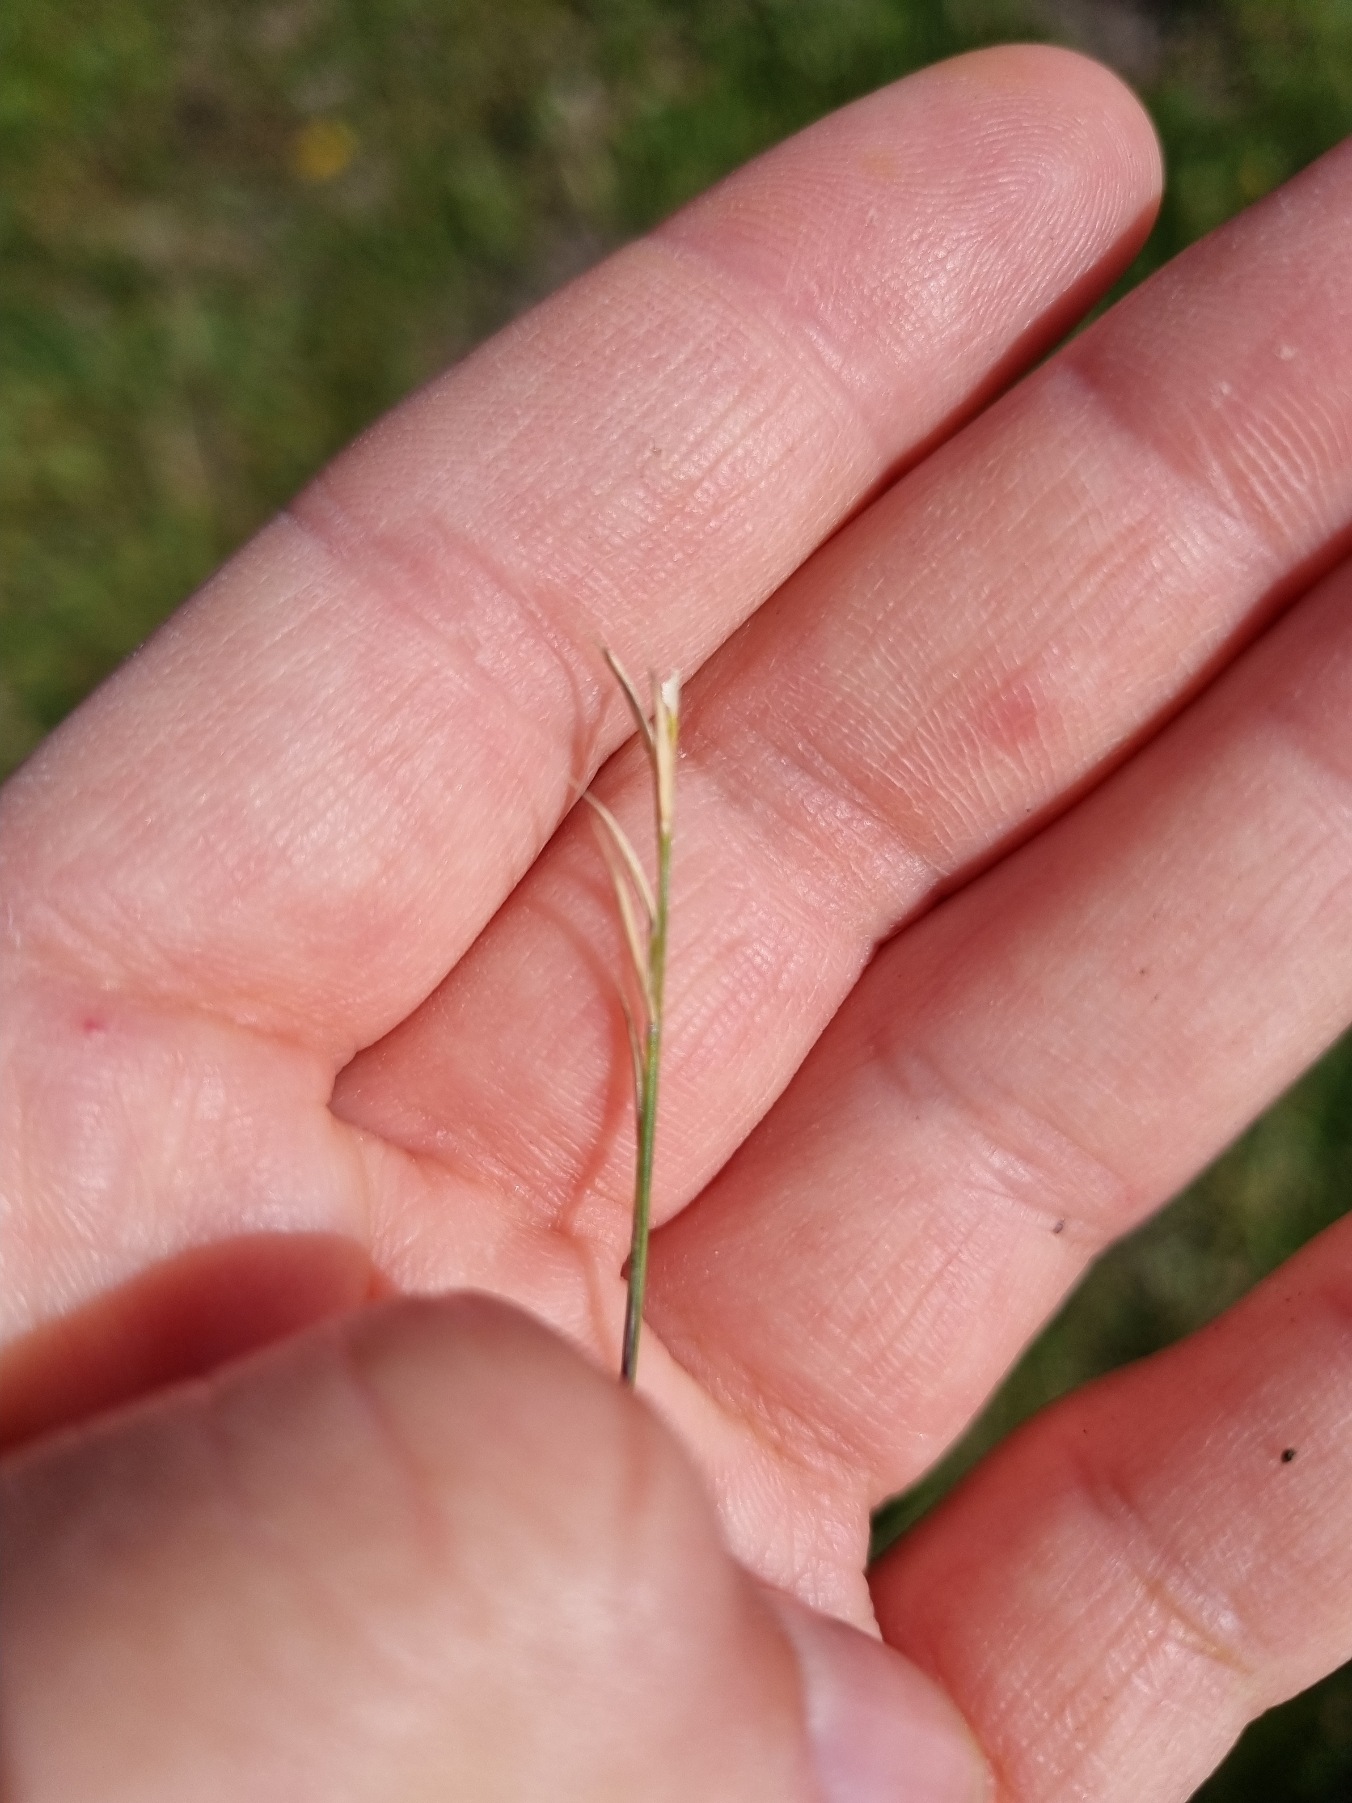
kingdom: Plantae
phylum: Tracheophyta
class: Liliopsida
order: Poales
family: Poaceae
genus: Nardus
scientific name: Nardus stricta
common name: Katteskæg
